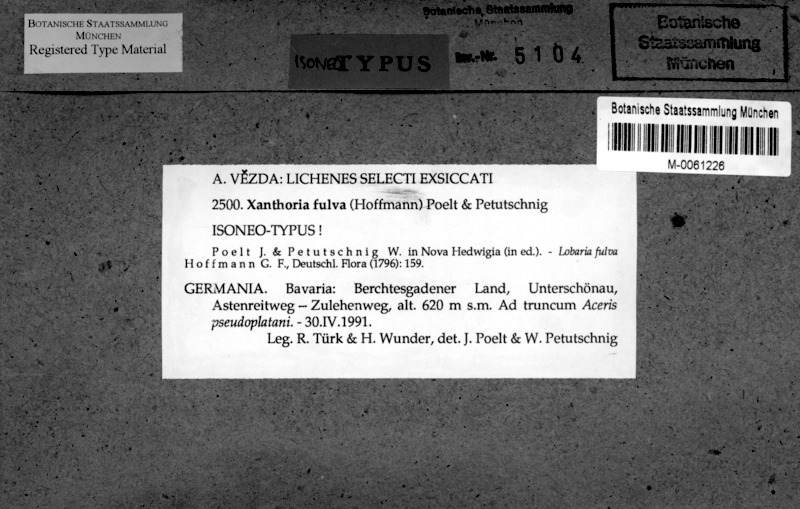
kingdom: Fungi
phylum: Ascomycota
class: Lecanoromycetes
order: Teloschistales
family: Teloschistaceae
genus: Gallowayella
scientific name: Gallowayella fulva
